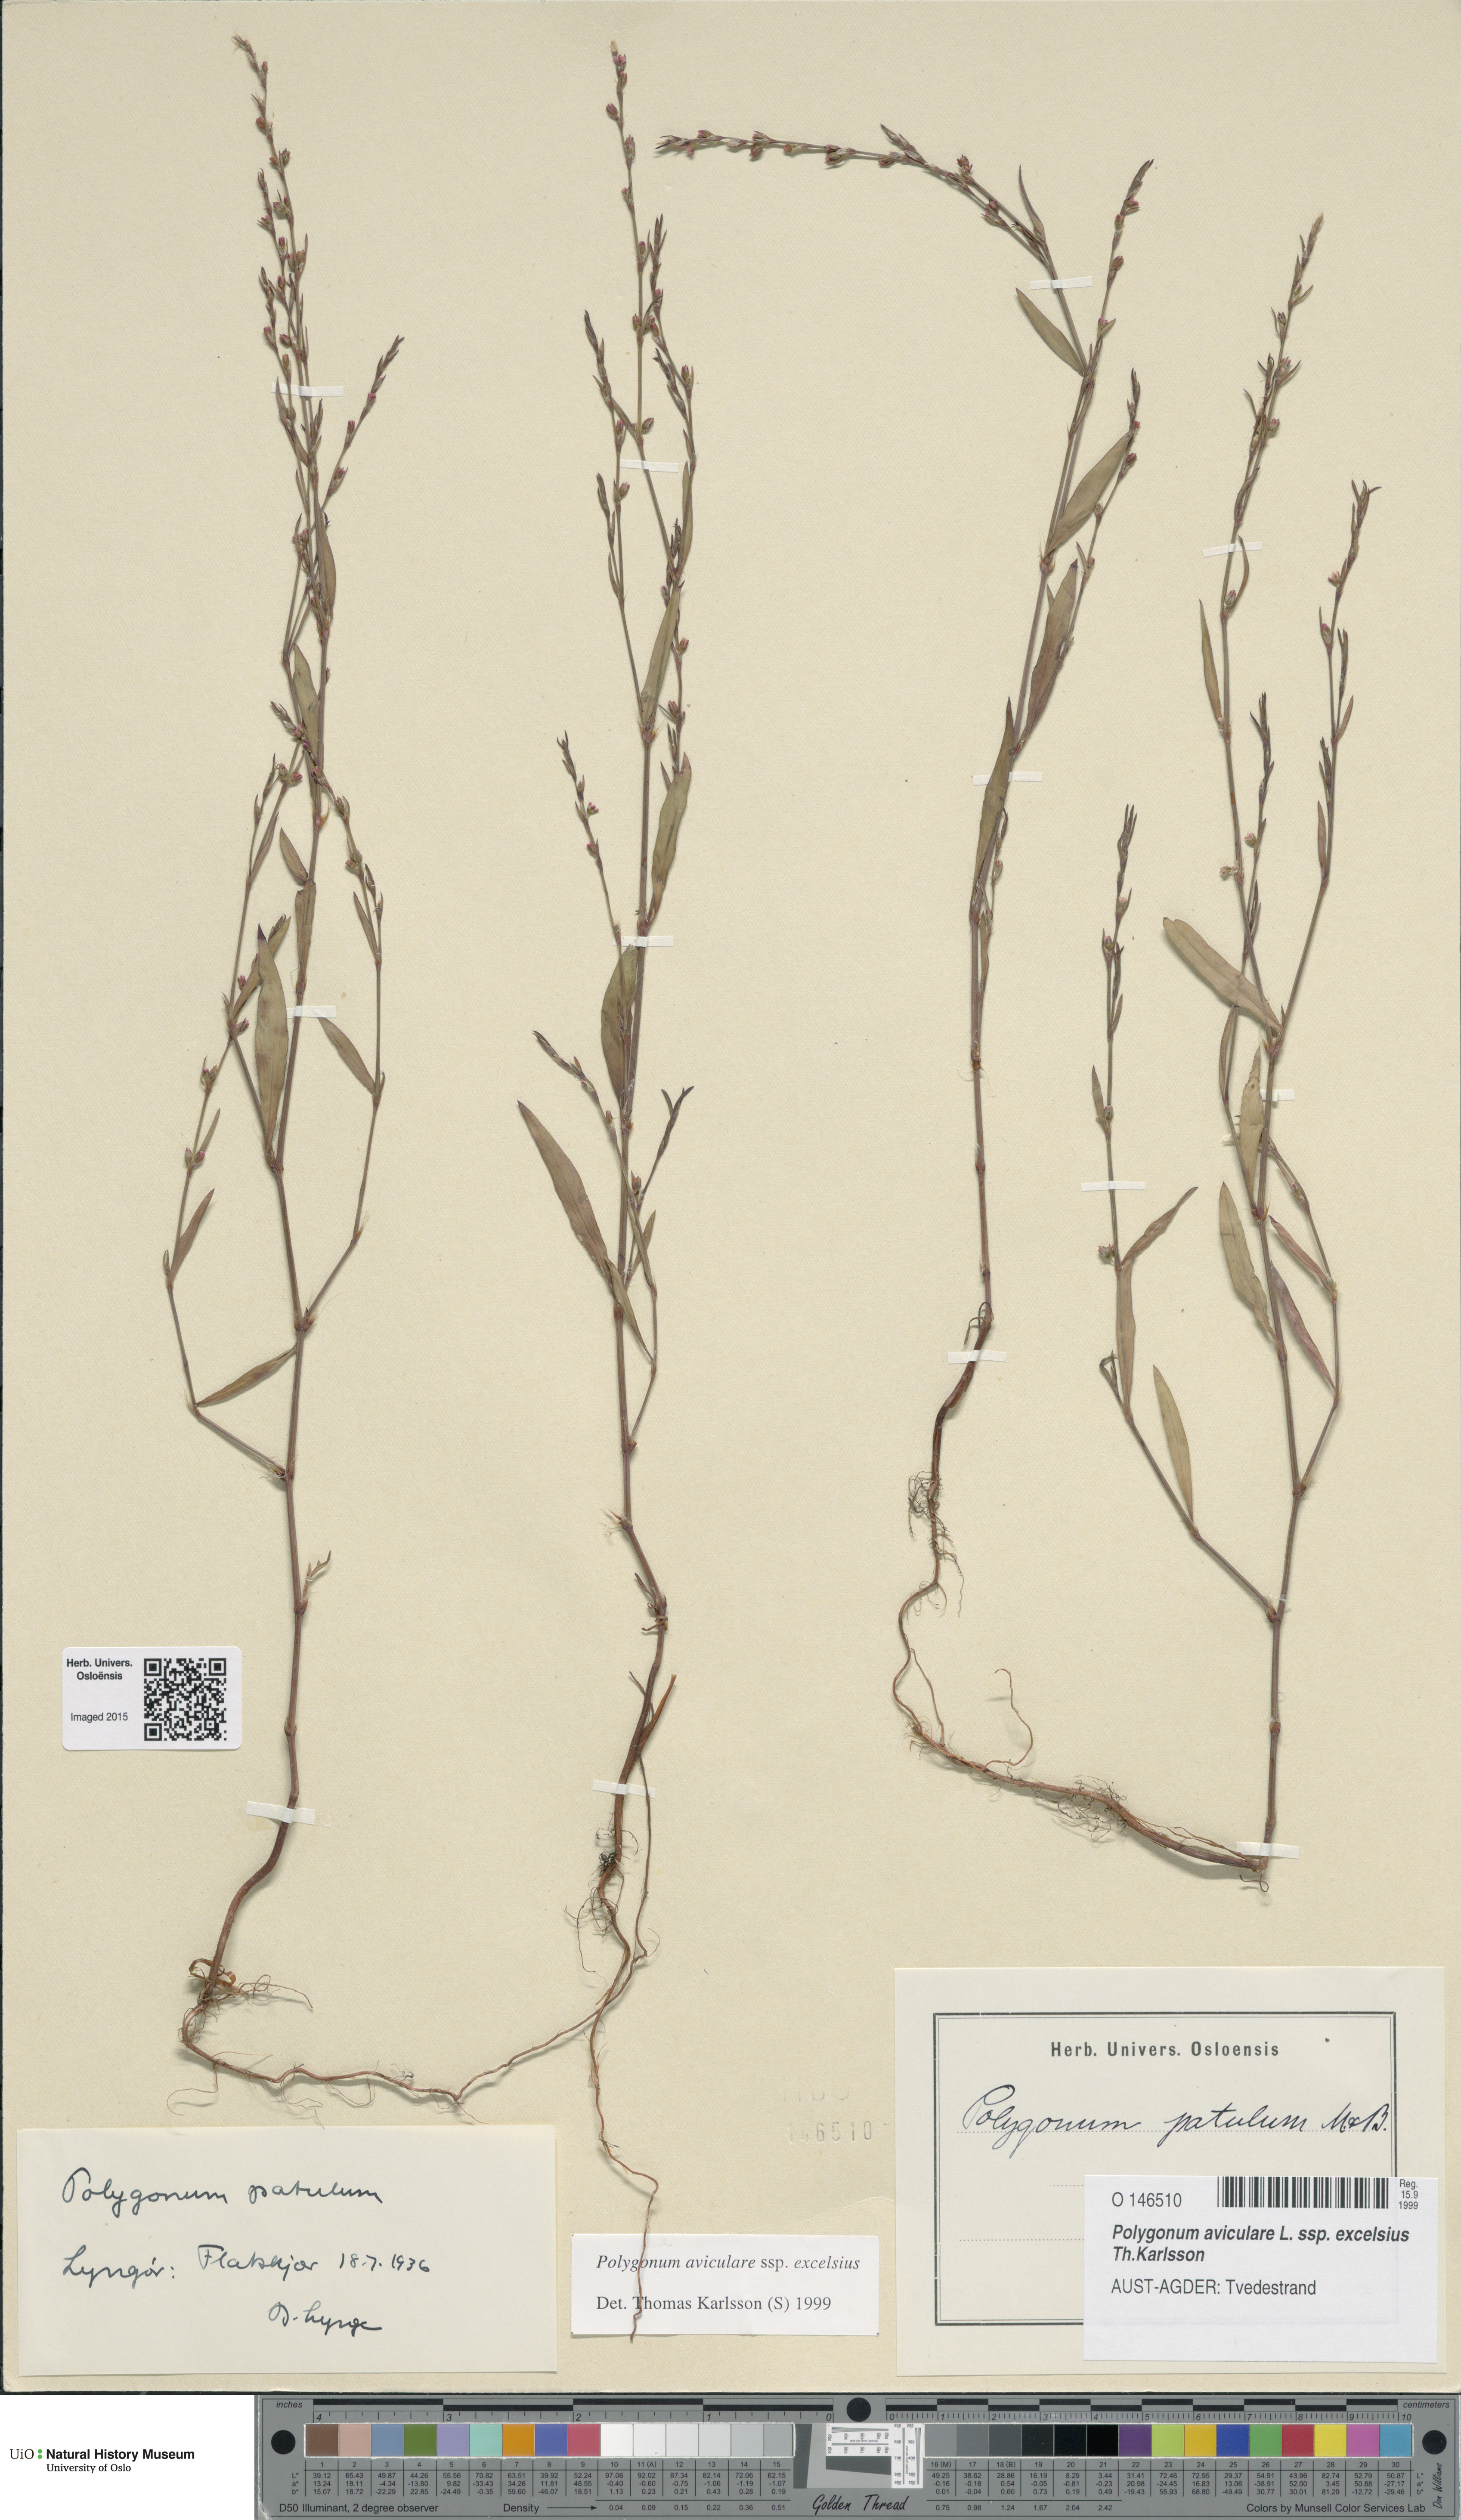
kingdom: Plantae
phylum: Tracheophyta
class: Magnoliopsida
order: Caryophyllales
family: Polygonaceae
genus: Polygonum
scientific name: Polygonum excelsius
